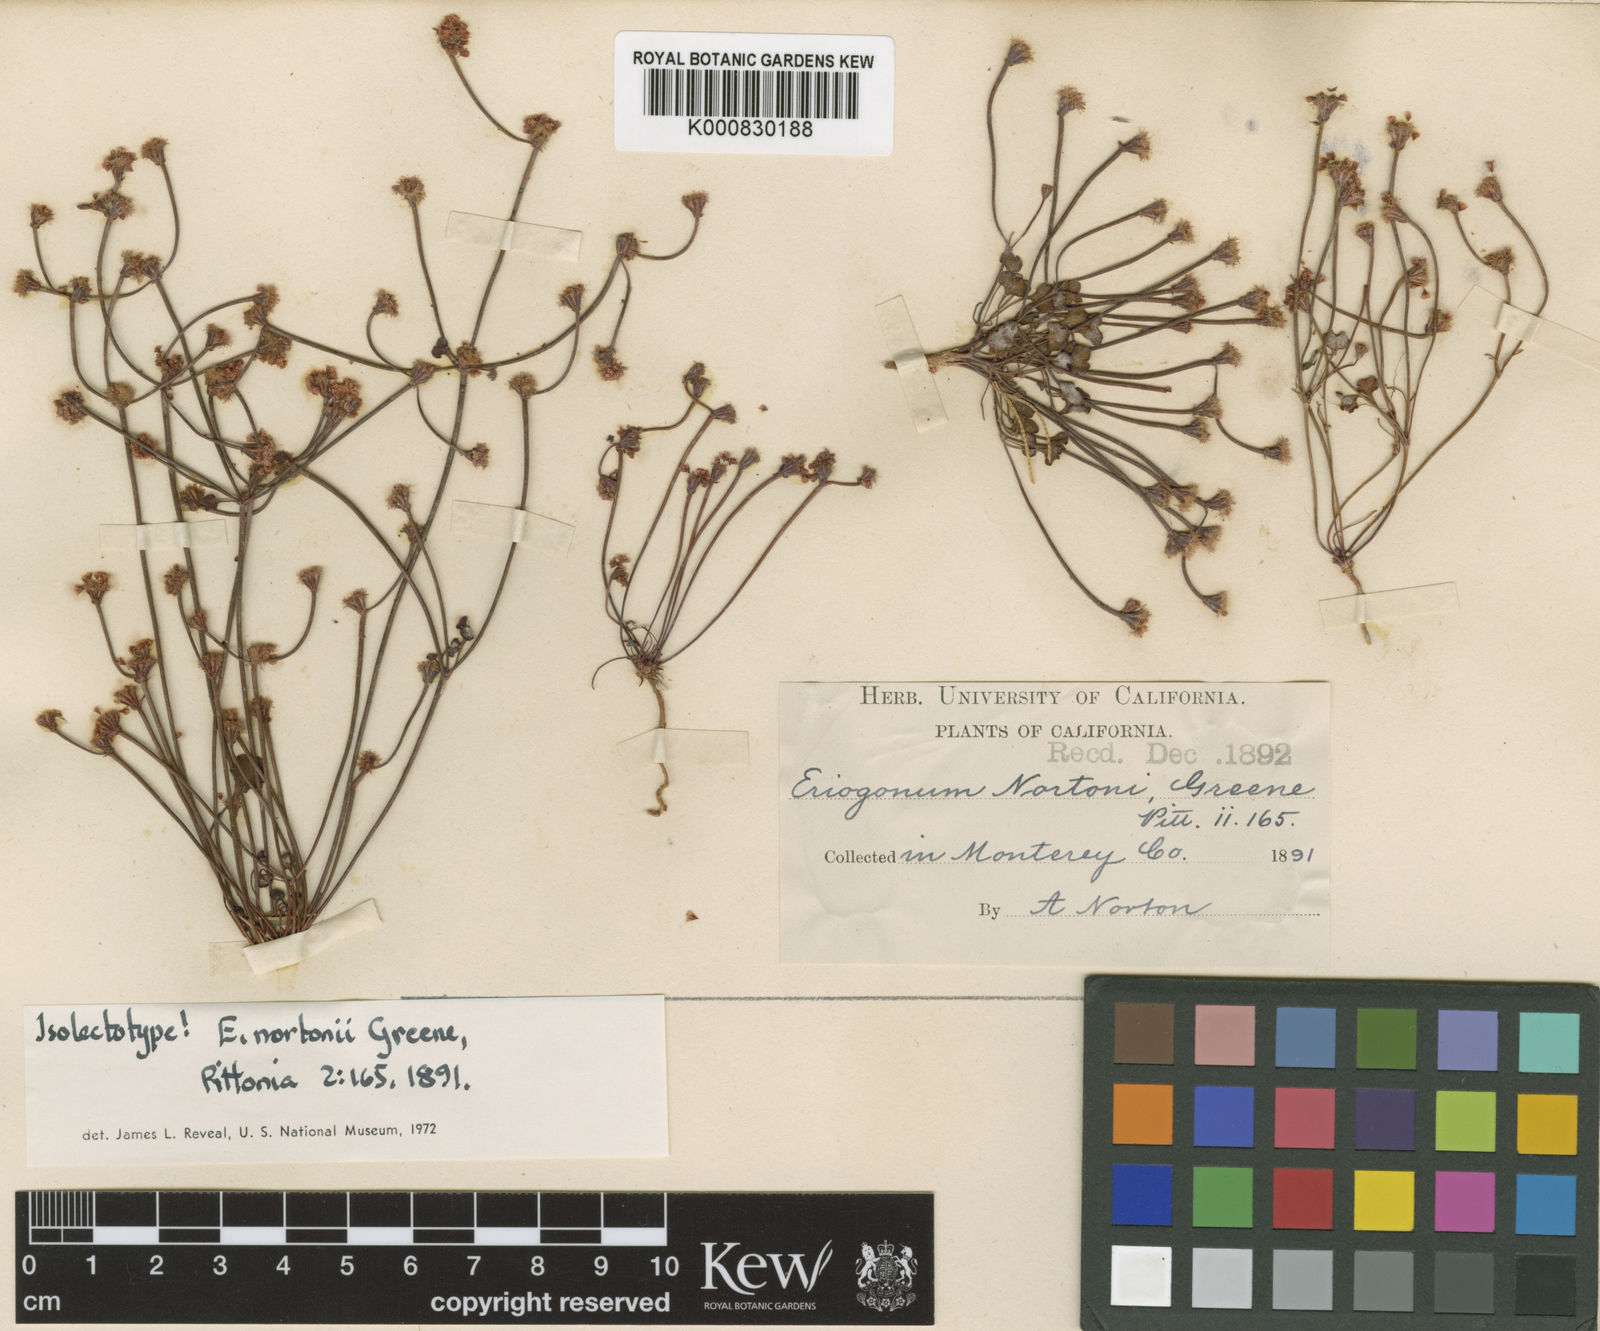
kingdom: Plantae
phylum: Tracheophyta
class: Magnoliopsida
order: Caryophyllales
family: Polygonaceae
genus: Eriogonum
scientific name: Eriogonum nortonii
